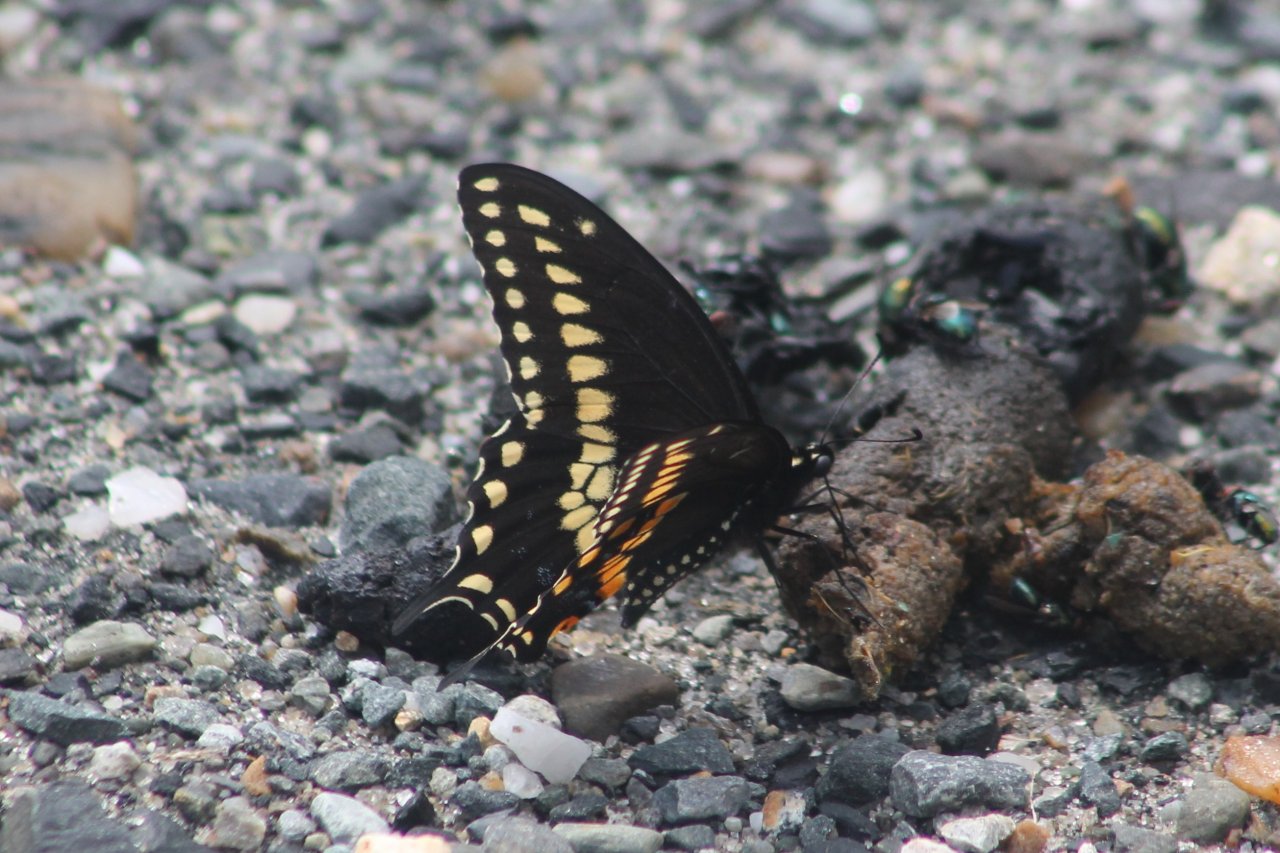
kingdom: Animalia
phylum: Arthropoda
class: Insecta
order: Lepidoptera
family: Papilionidae
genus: Papilio
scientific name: Papilio polyxenes
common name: Black Swallowtail
